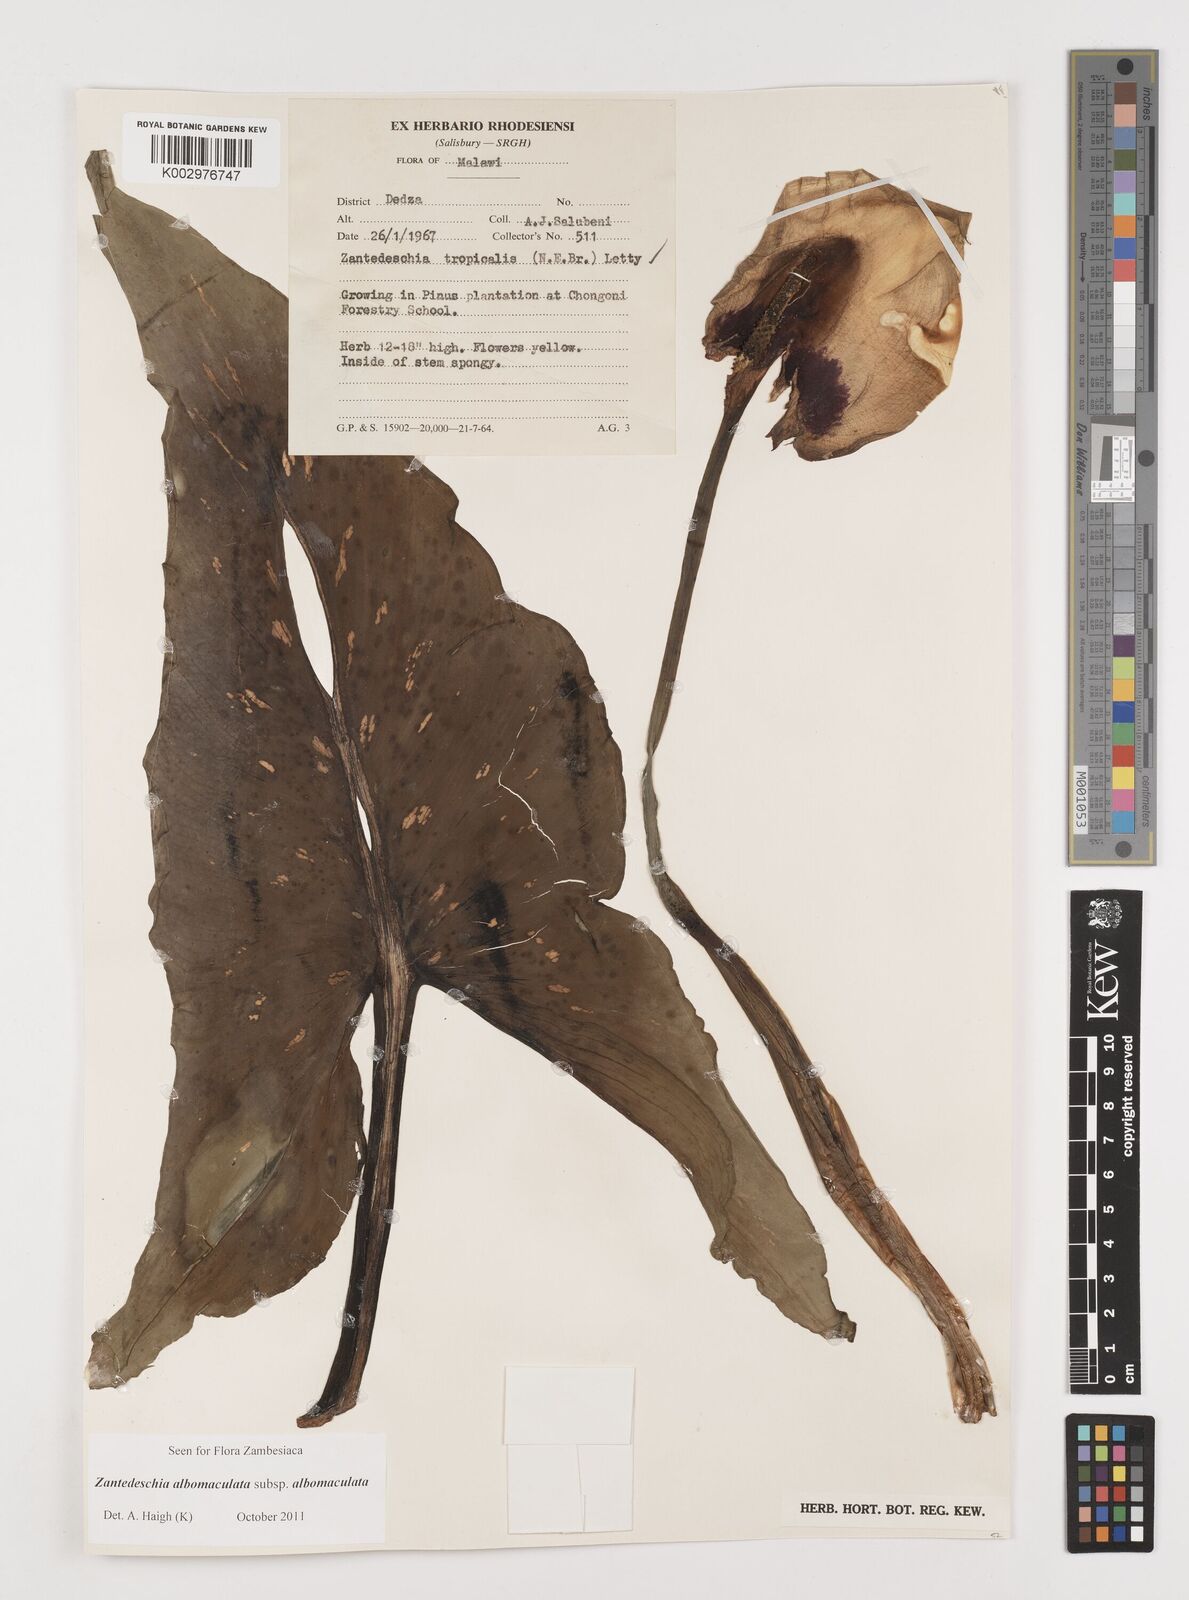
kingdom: Plantae
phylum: Tracheophyta
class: Liliopsida
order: Alismatales
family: Araceae
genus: Zantedeschia
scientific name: Zantedeschia albomaculata
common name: Spotted calla lily
